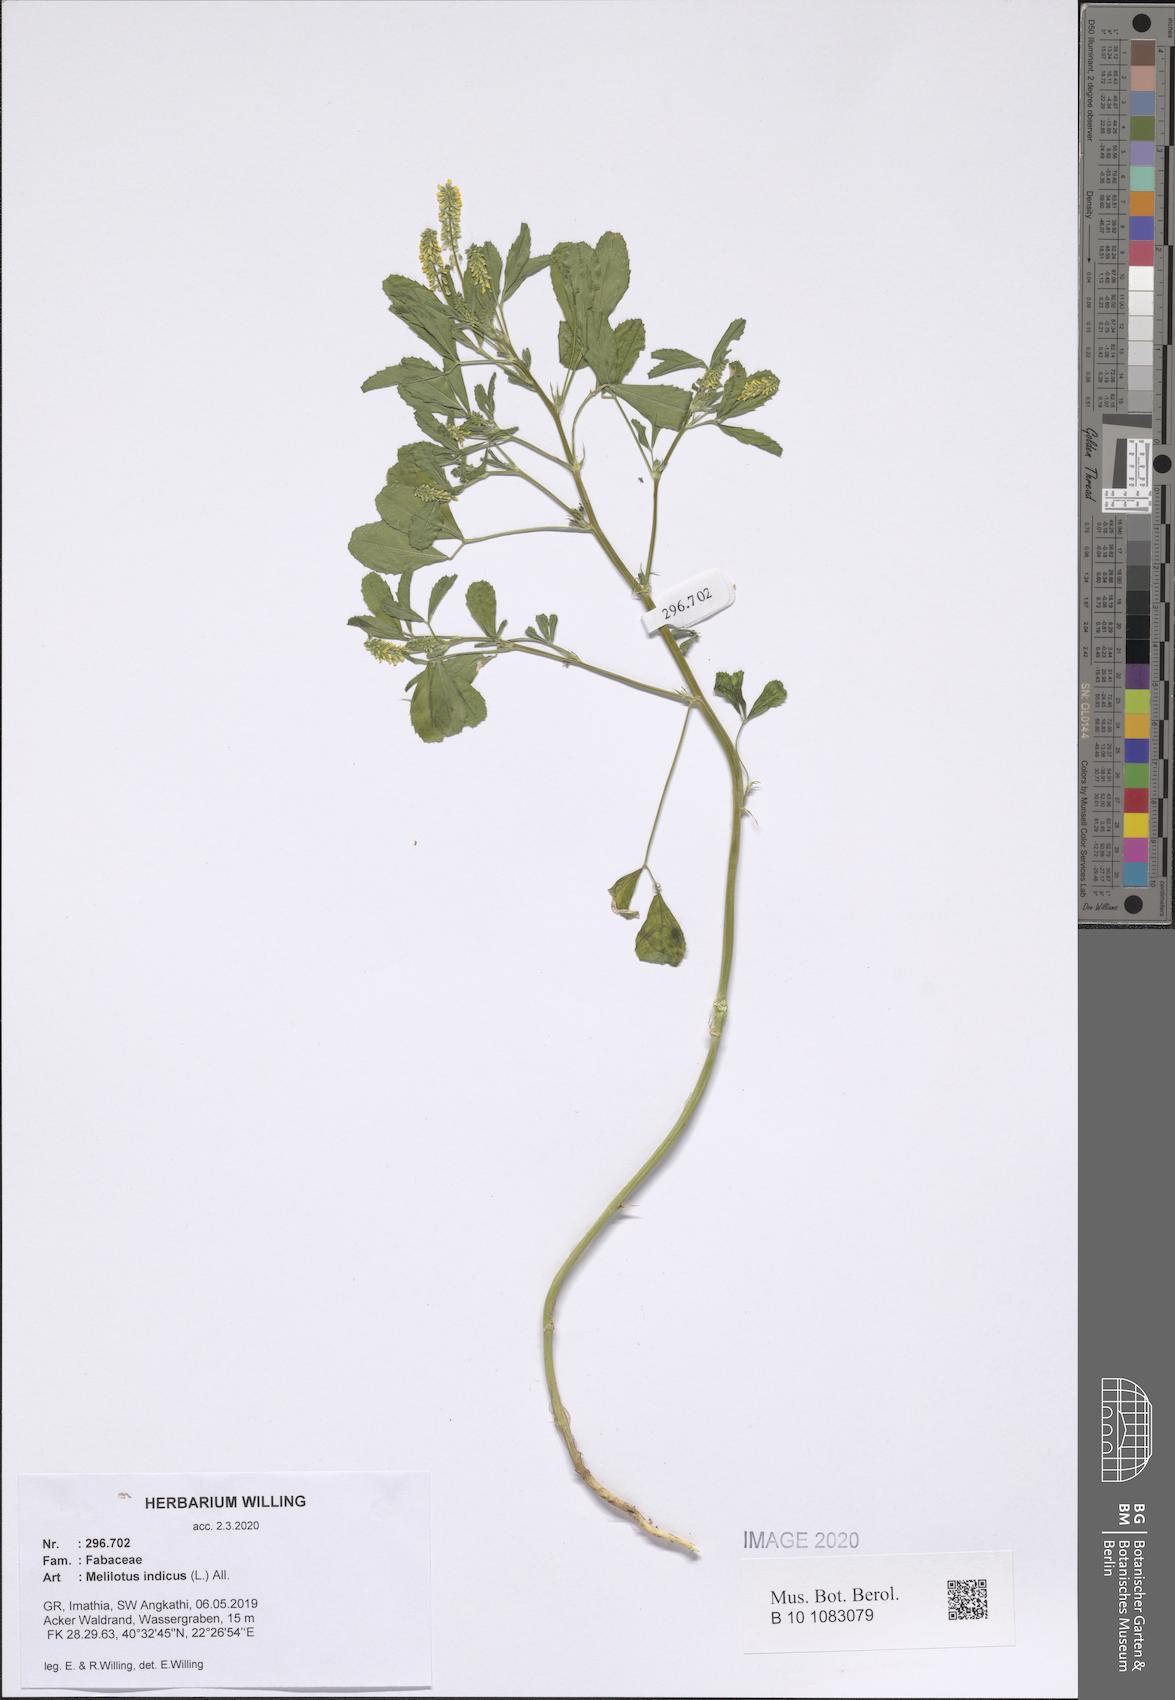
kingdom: Plantae
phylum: Tracheophyta
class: Magnoliopsida
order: Fabales
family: Fabaceae
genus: Melilotus
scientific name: Melilotus indicus
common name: Small melilot
